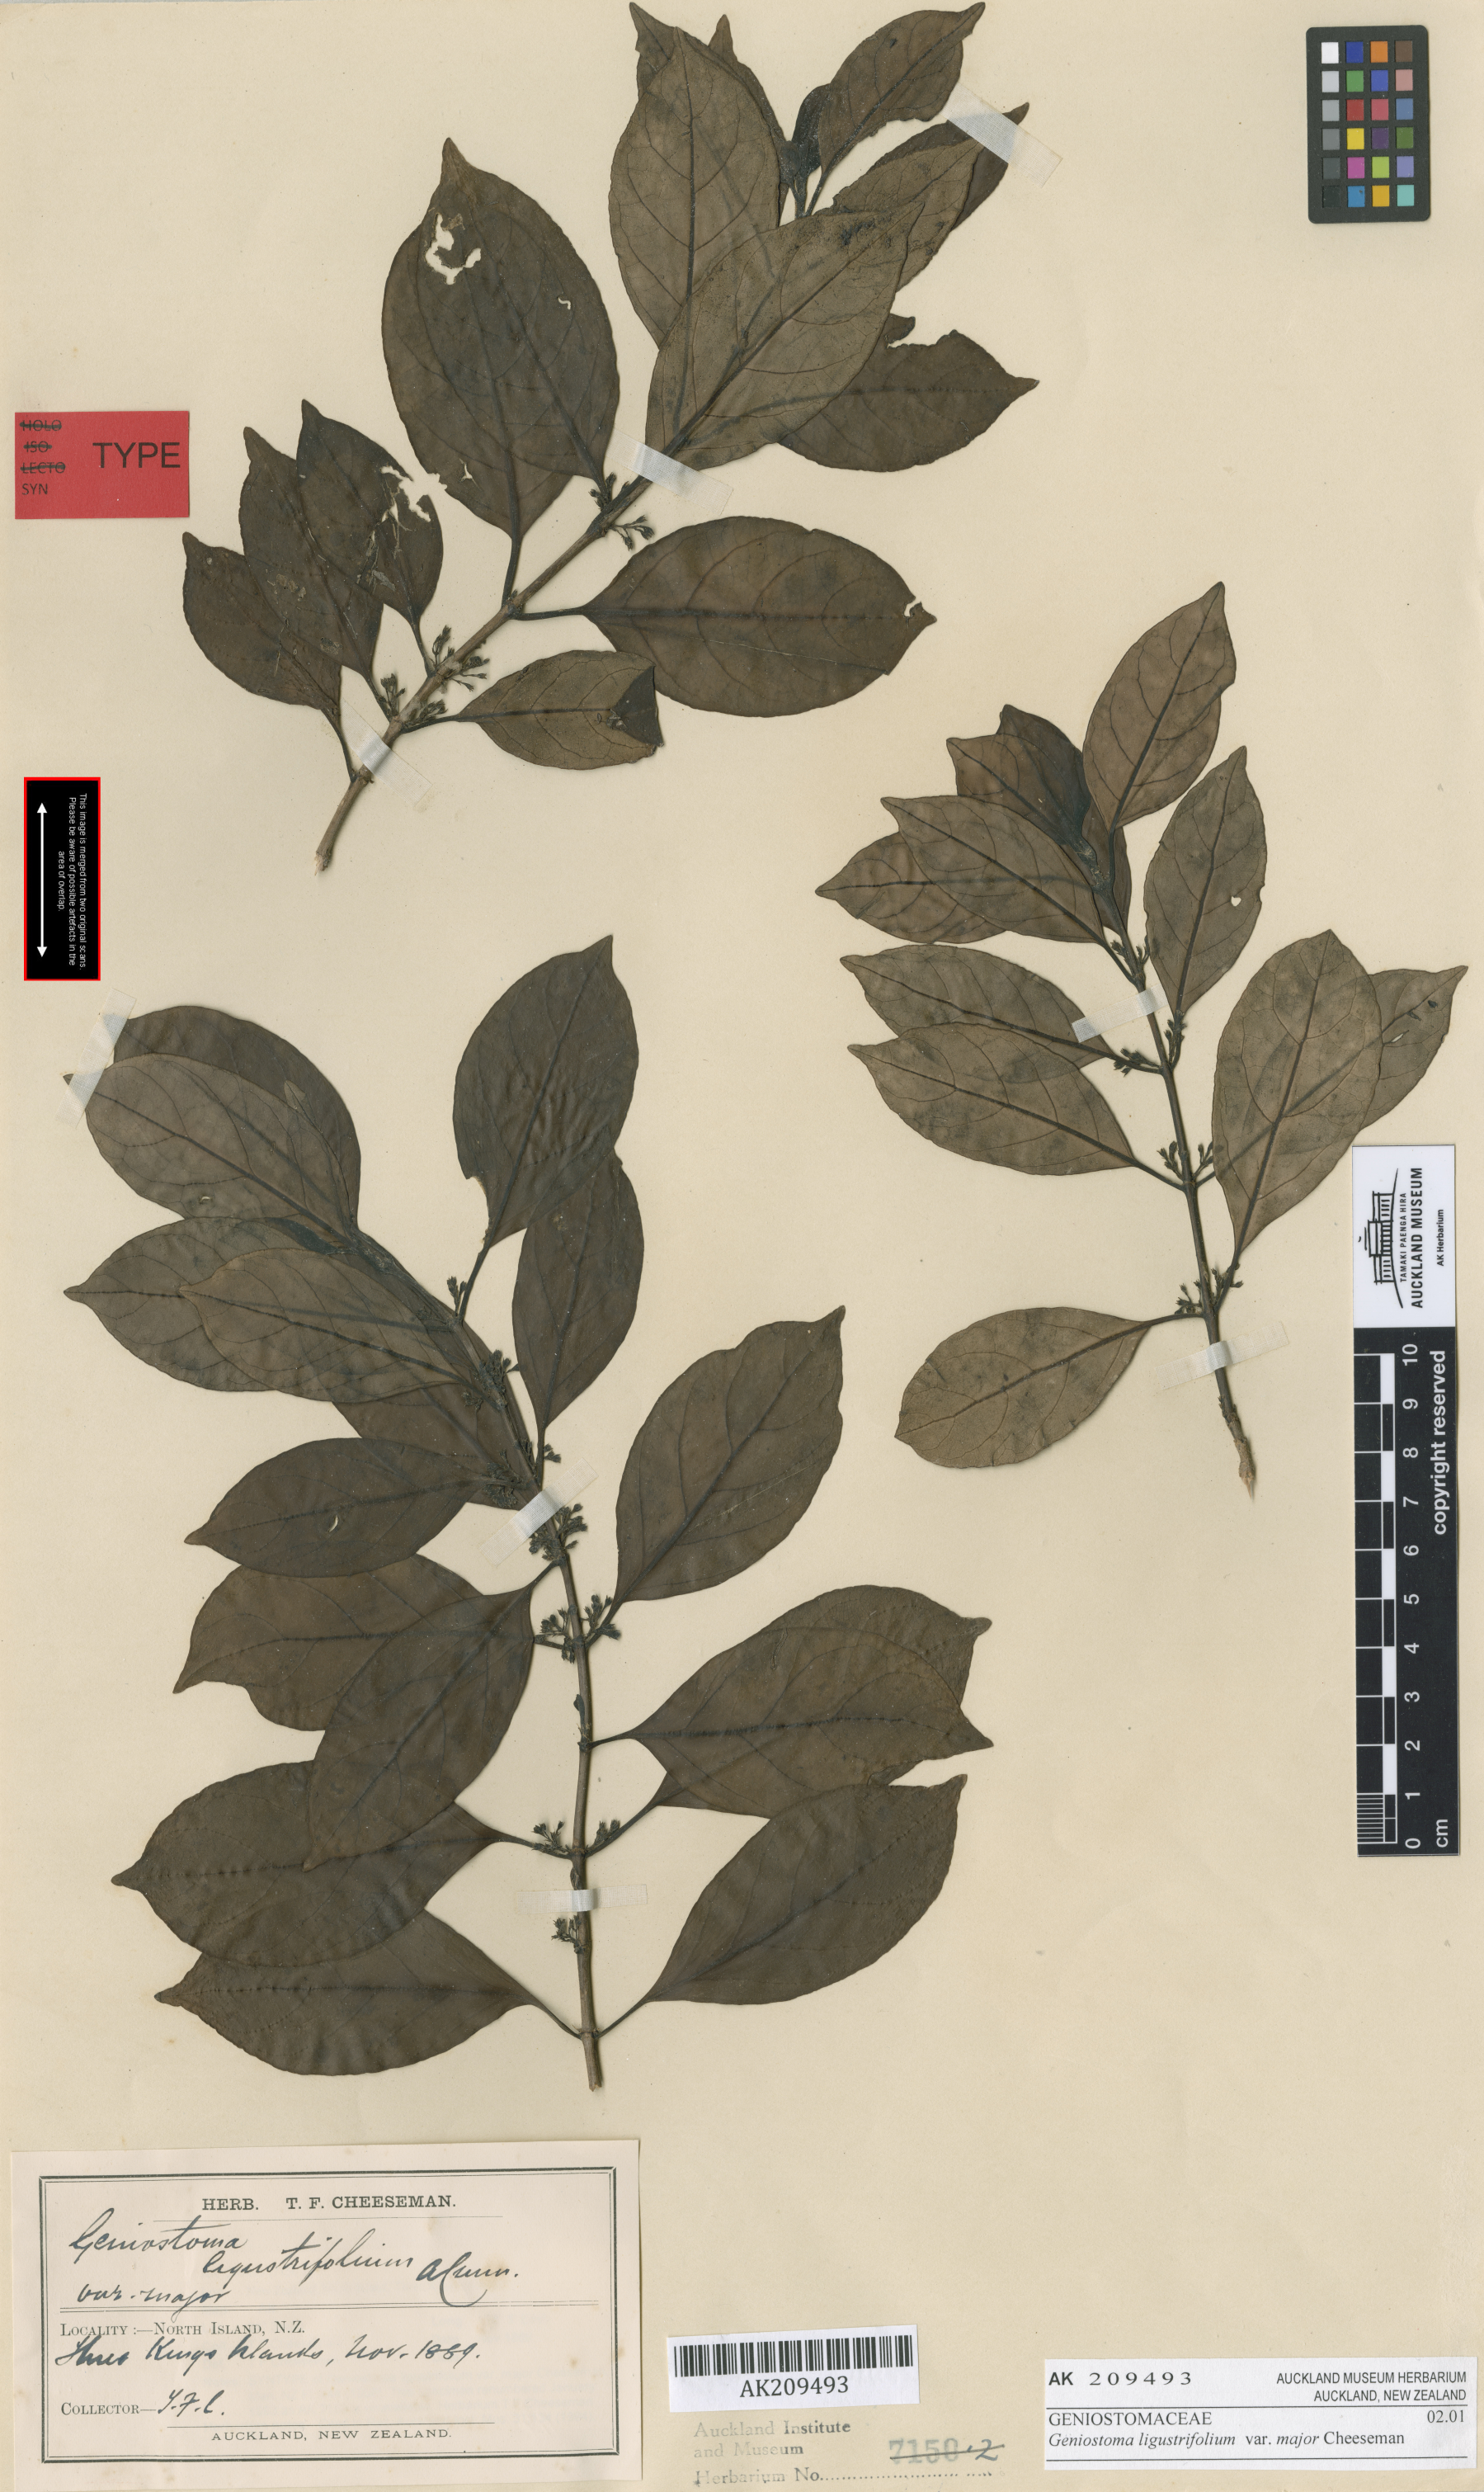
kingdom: Plantae
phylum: Tracheophyta
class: Magnoliopsida
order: Gentianales
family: Loganiaceae
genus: Geniostoma
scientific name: Geniostoma ligustrifolium
